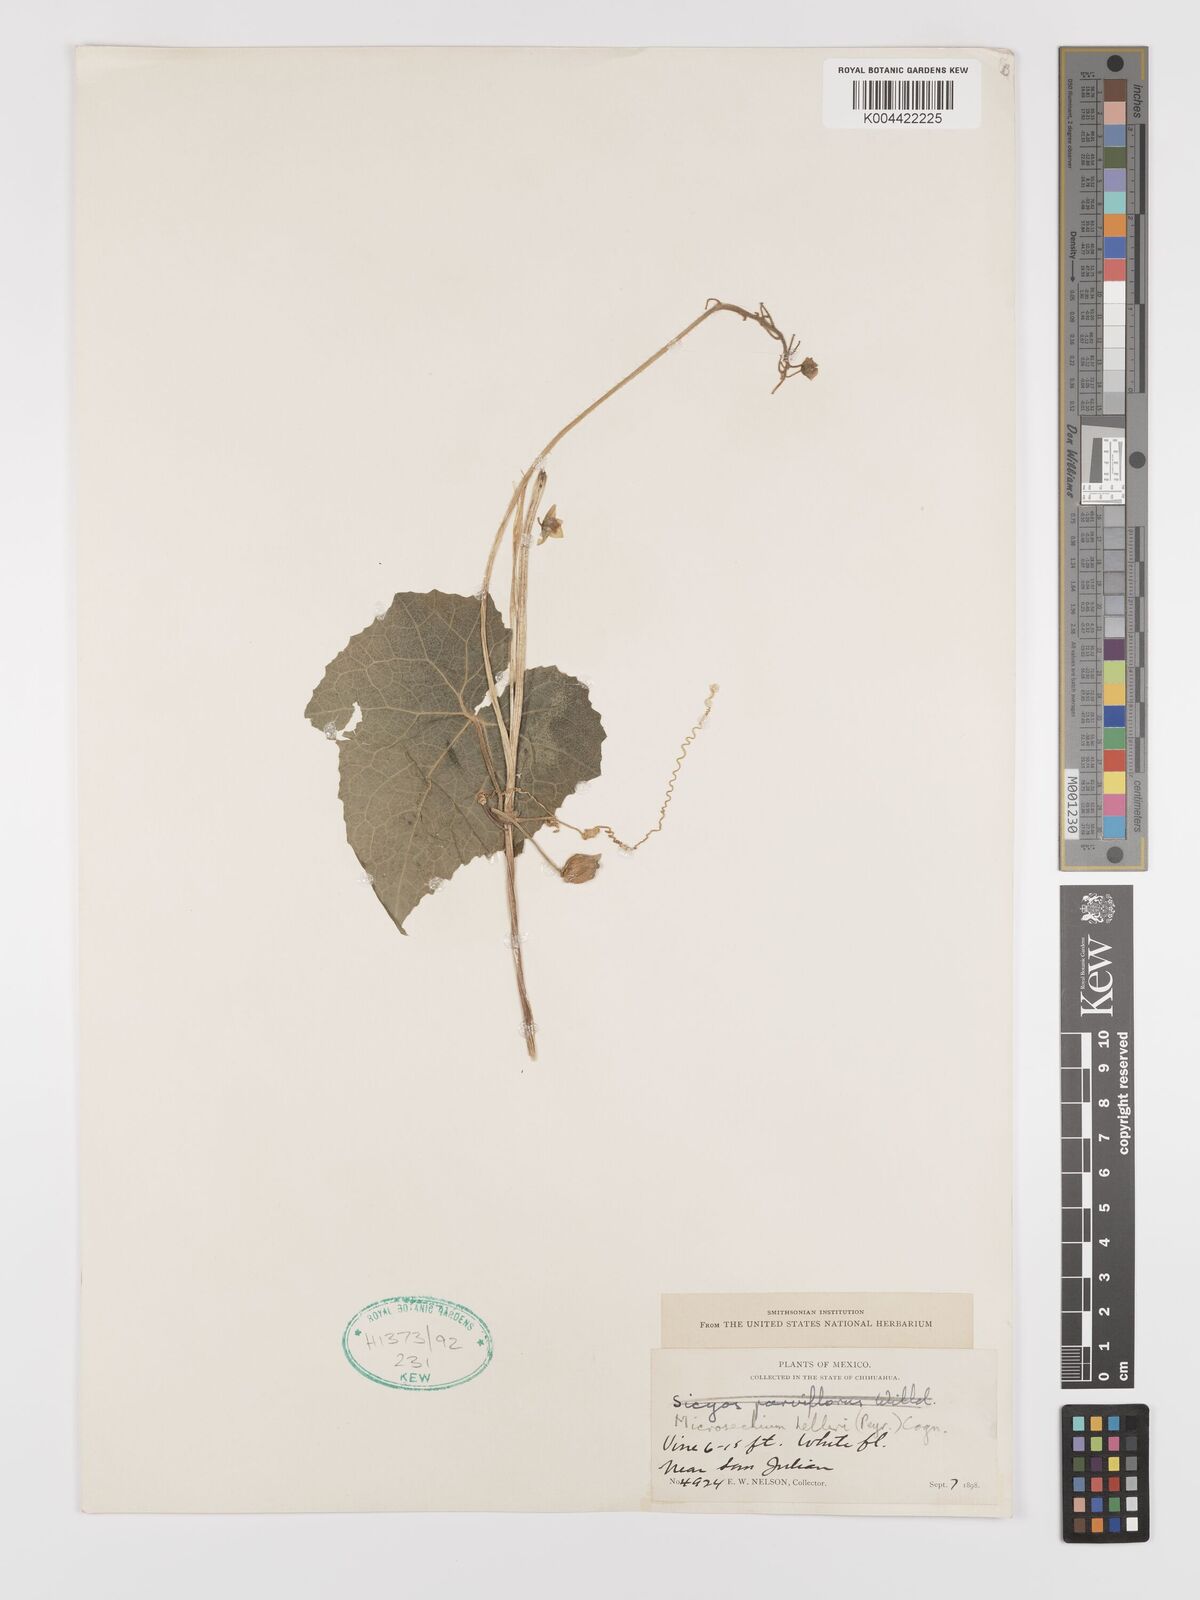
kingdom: Plantae
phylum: Tracheophyta
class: Magnoliopsida
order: Cucurbitales
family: Cucurbitaceae
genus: Microsechium
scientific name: Microsechium palmatum
